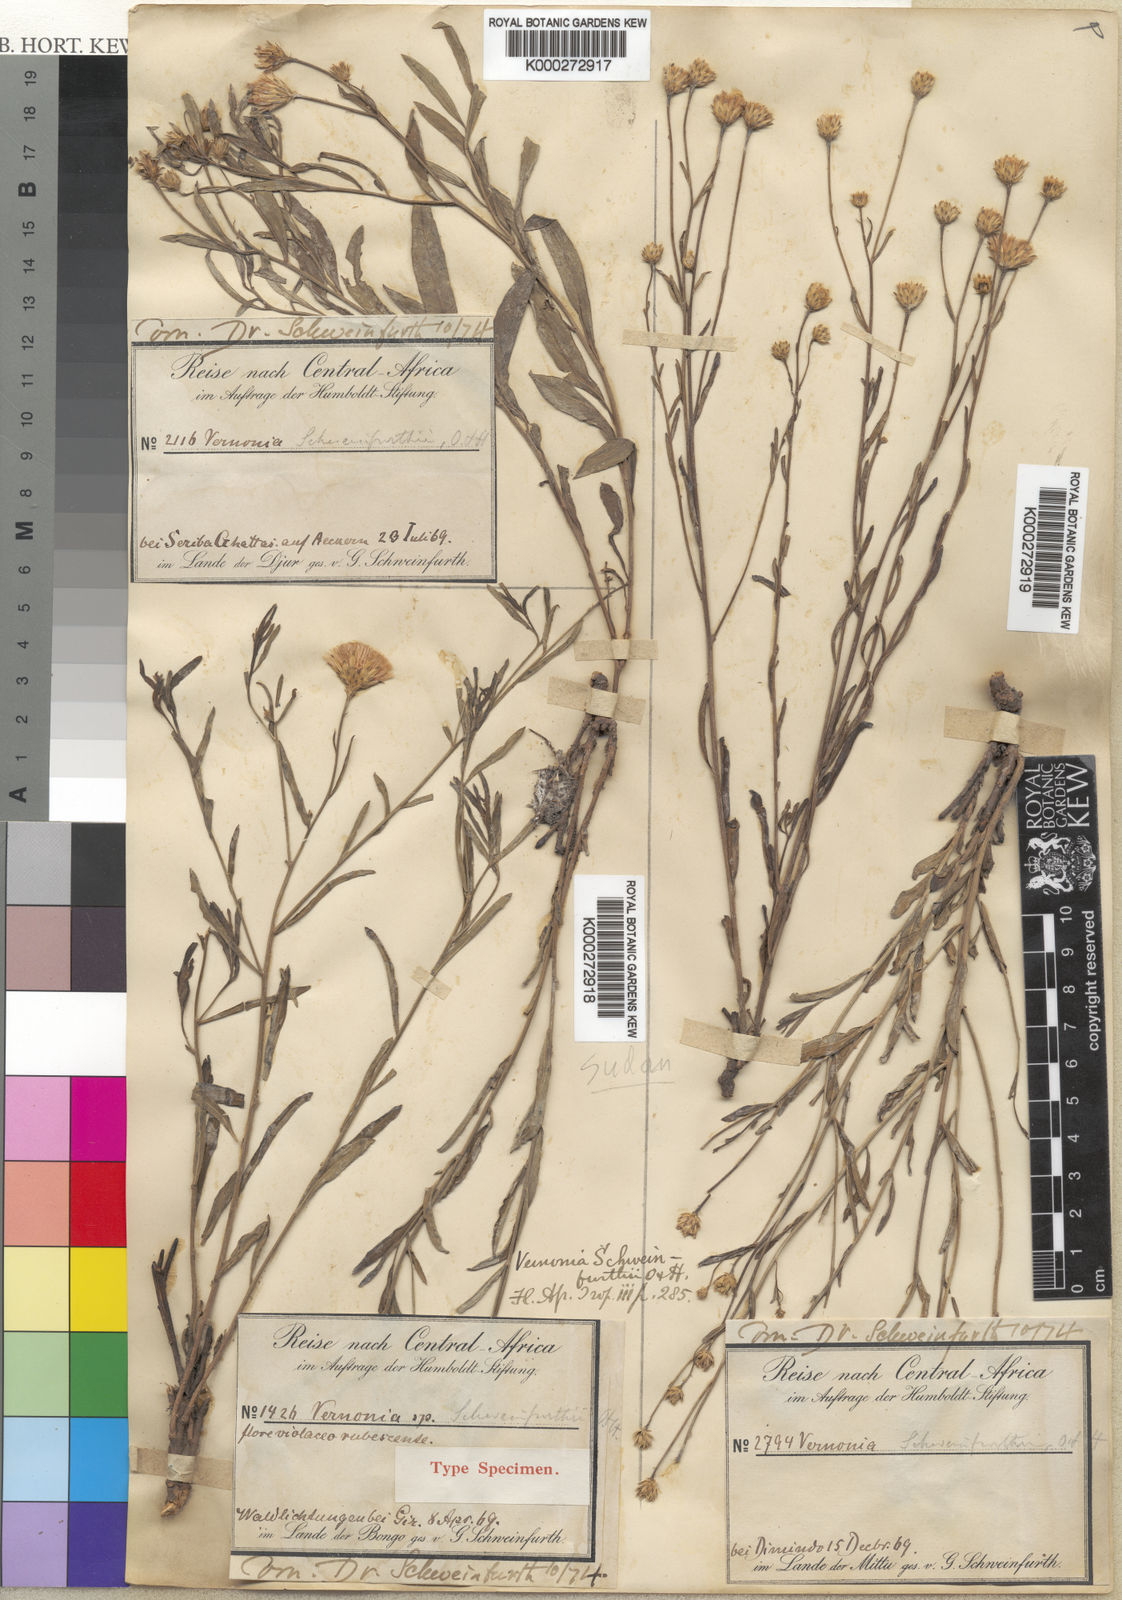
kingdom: Plantae
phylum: Tracheophyta
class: Magnoliopsida
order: Asterales
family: Asteraceae
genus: Vernonia
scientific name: Vernonia schweinfurthii
